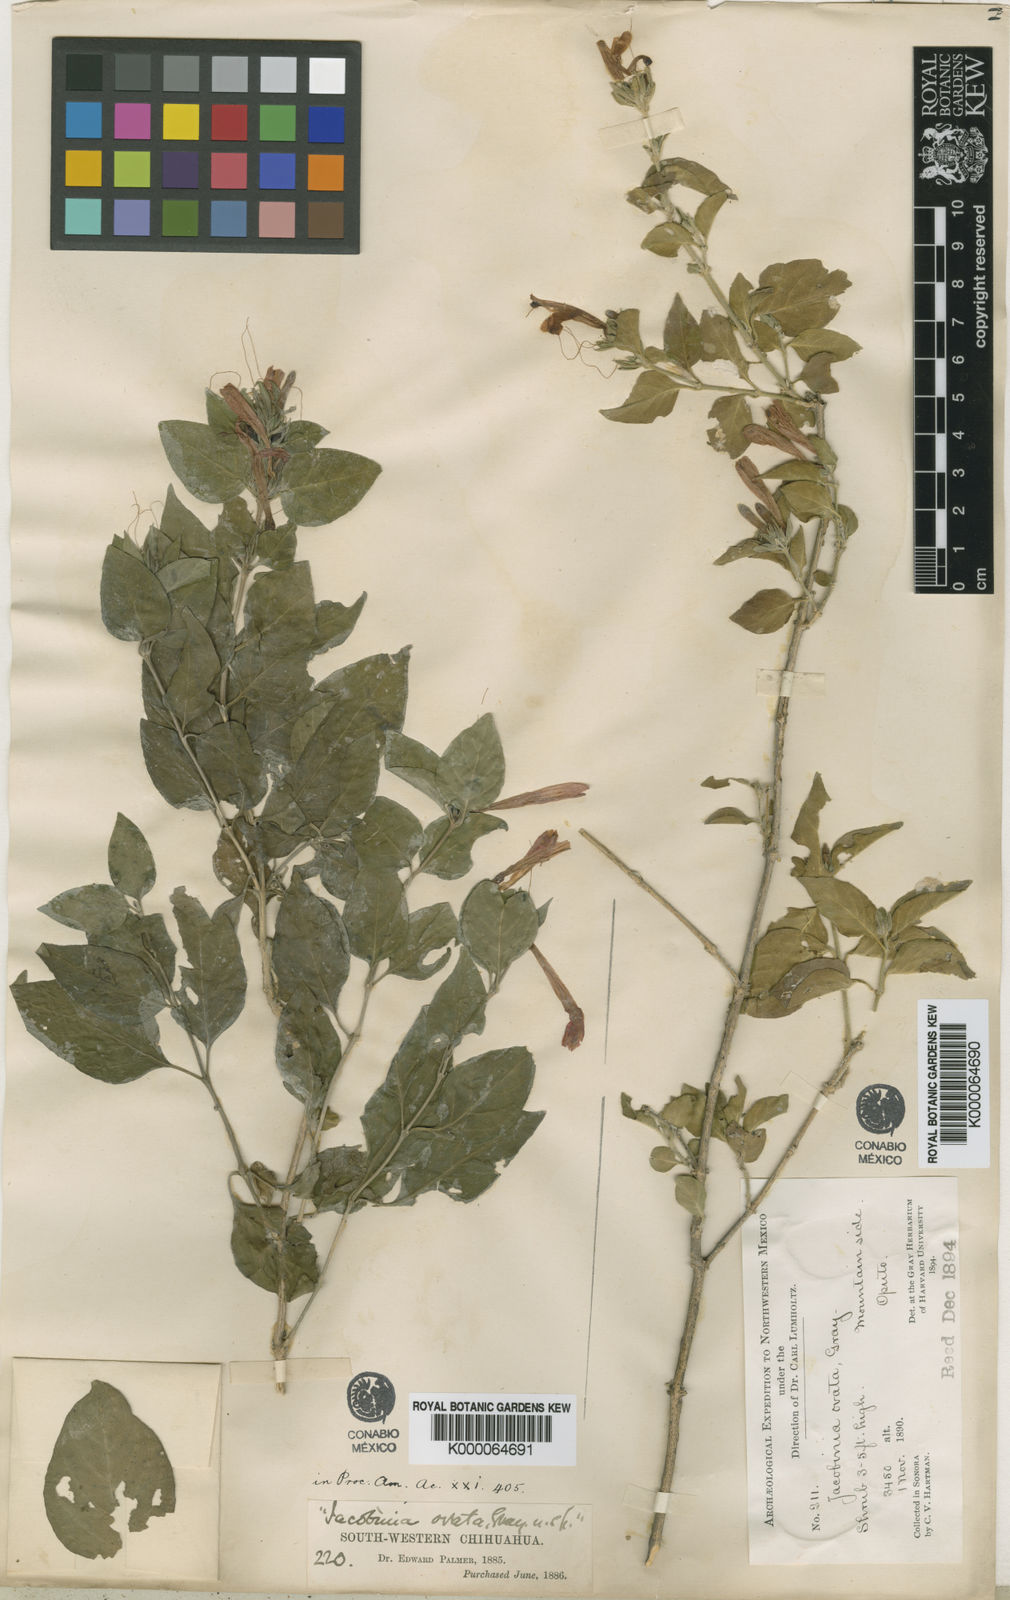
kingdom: Plantae
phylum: Tracheophyta
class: Magnoliopsida
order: Lamiales
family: Acanthaceae
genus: Dianthera
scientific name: Dianthera candicans
